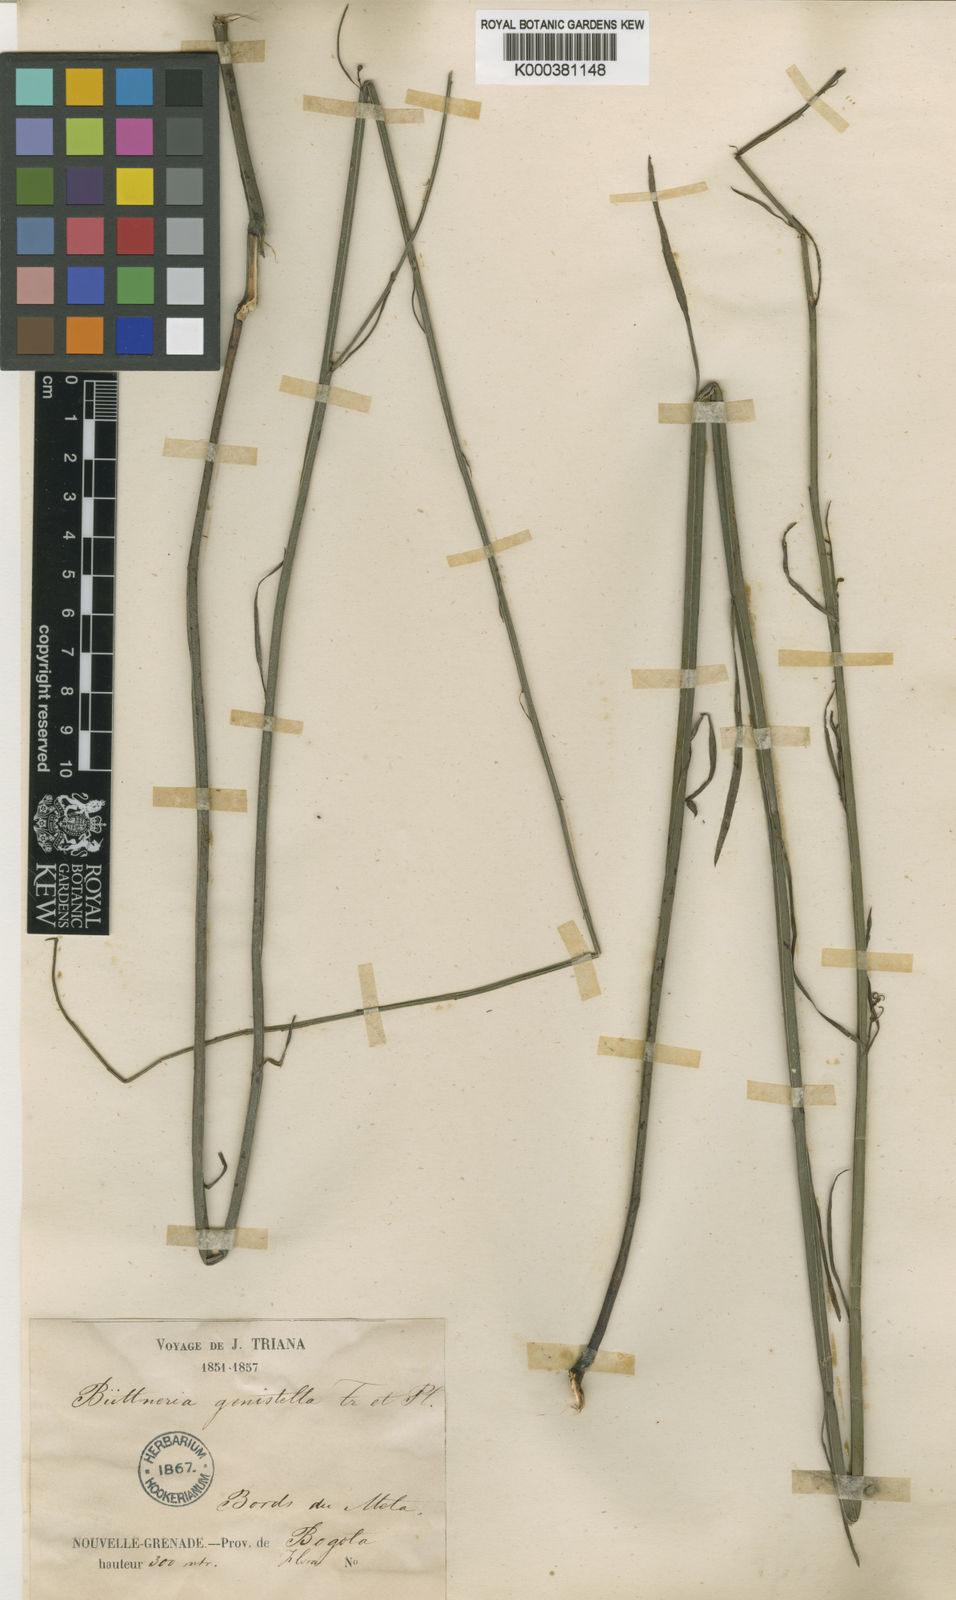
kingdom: Plantae
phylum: Tracheophyta
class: Magnoliopsida
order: Malvales
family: Malvaceae
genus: Byttneria
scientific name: Byttneria genistella
